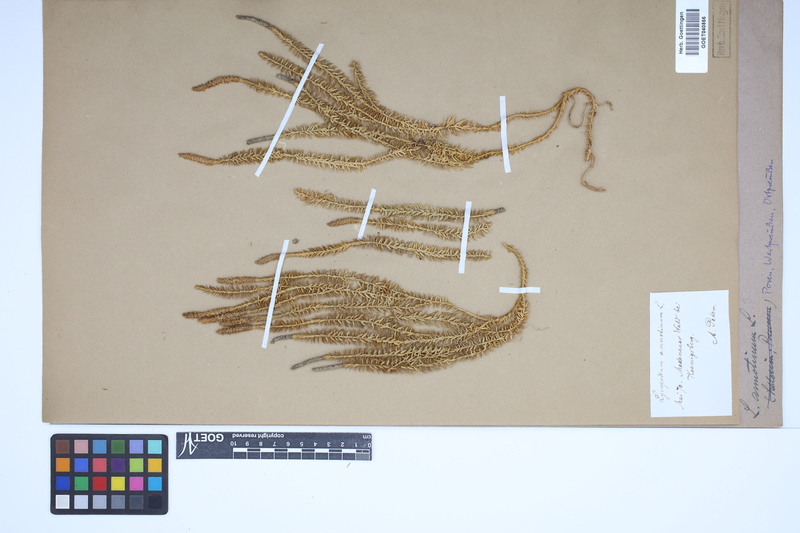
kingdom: Plantae
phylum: Tracheophyta
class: Lycopodiopsida
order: Lycopodiales
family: Lycopodiaceae
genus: Spinulum
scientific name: Spinulum annotinum
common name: Interrupted club-moss
